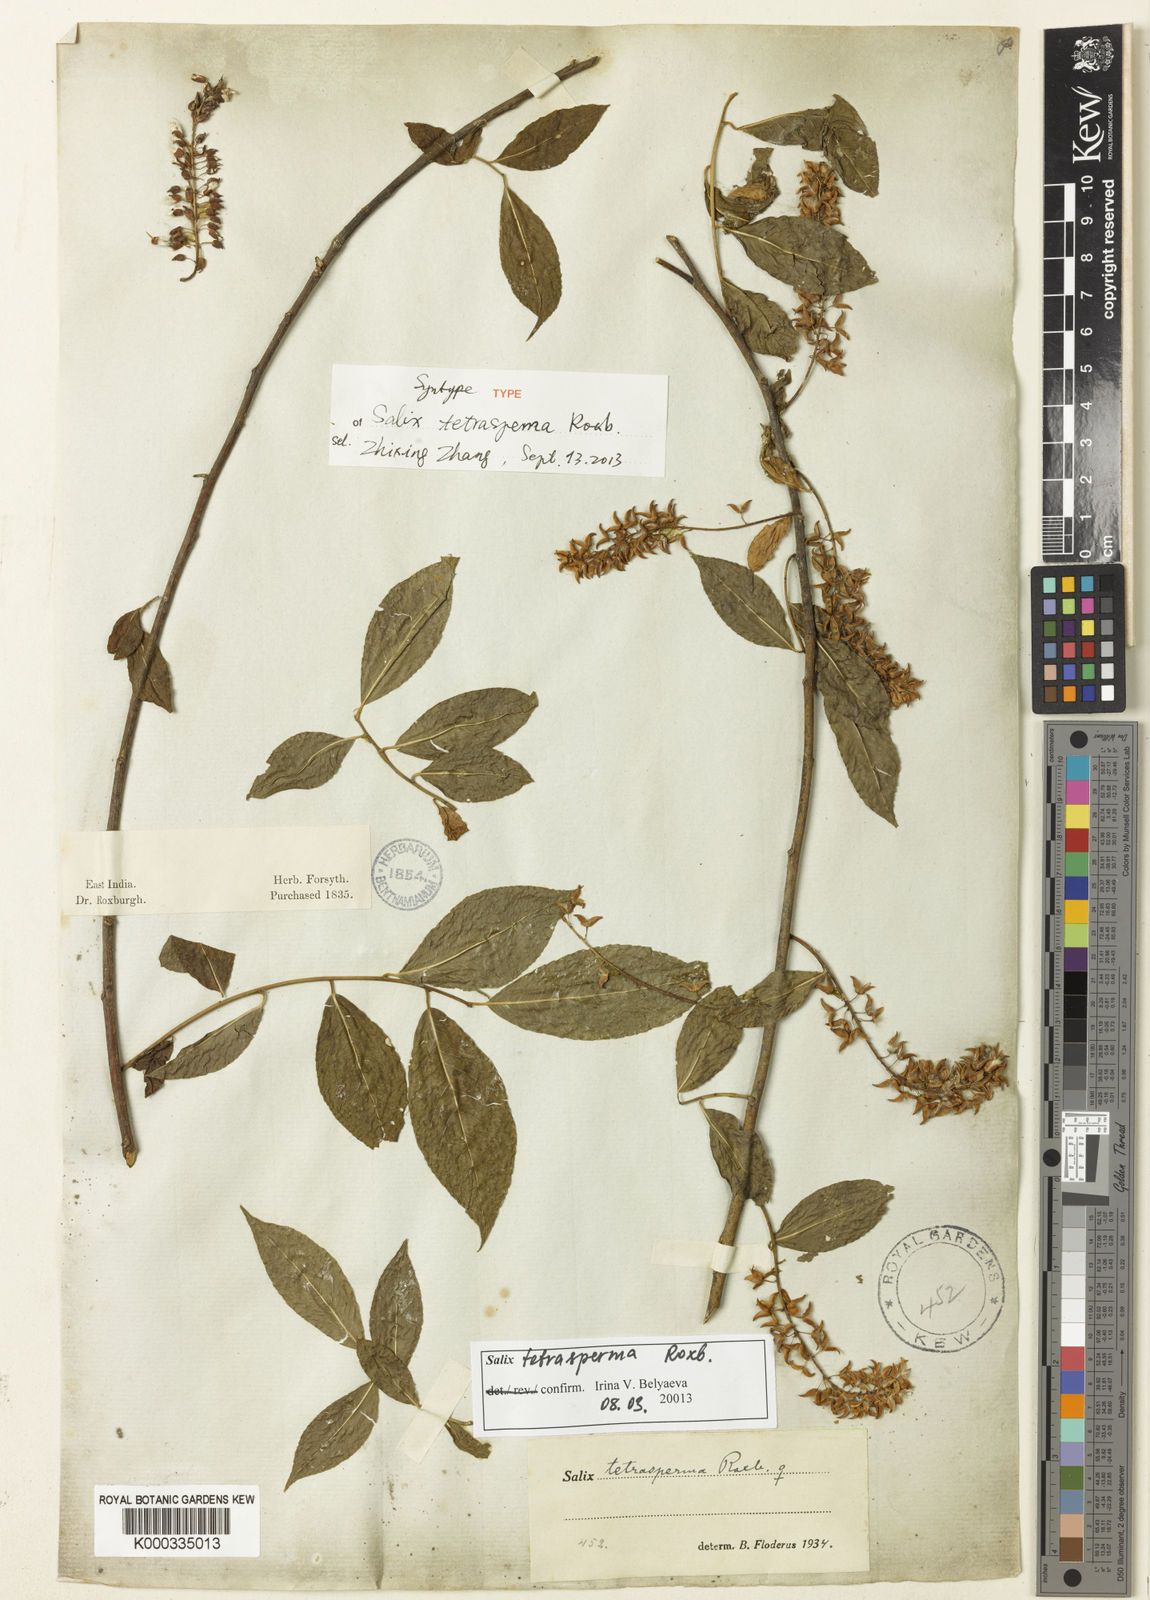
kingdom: Plantae
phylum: Tracheophyta
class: Magnoliopsida
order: Malpighiales
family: Salicaceae
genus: Salix
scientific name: Salix tetrasperma
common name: Indian willow
